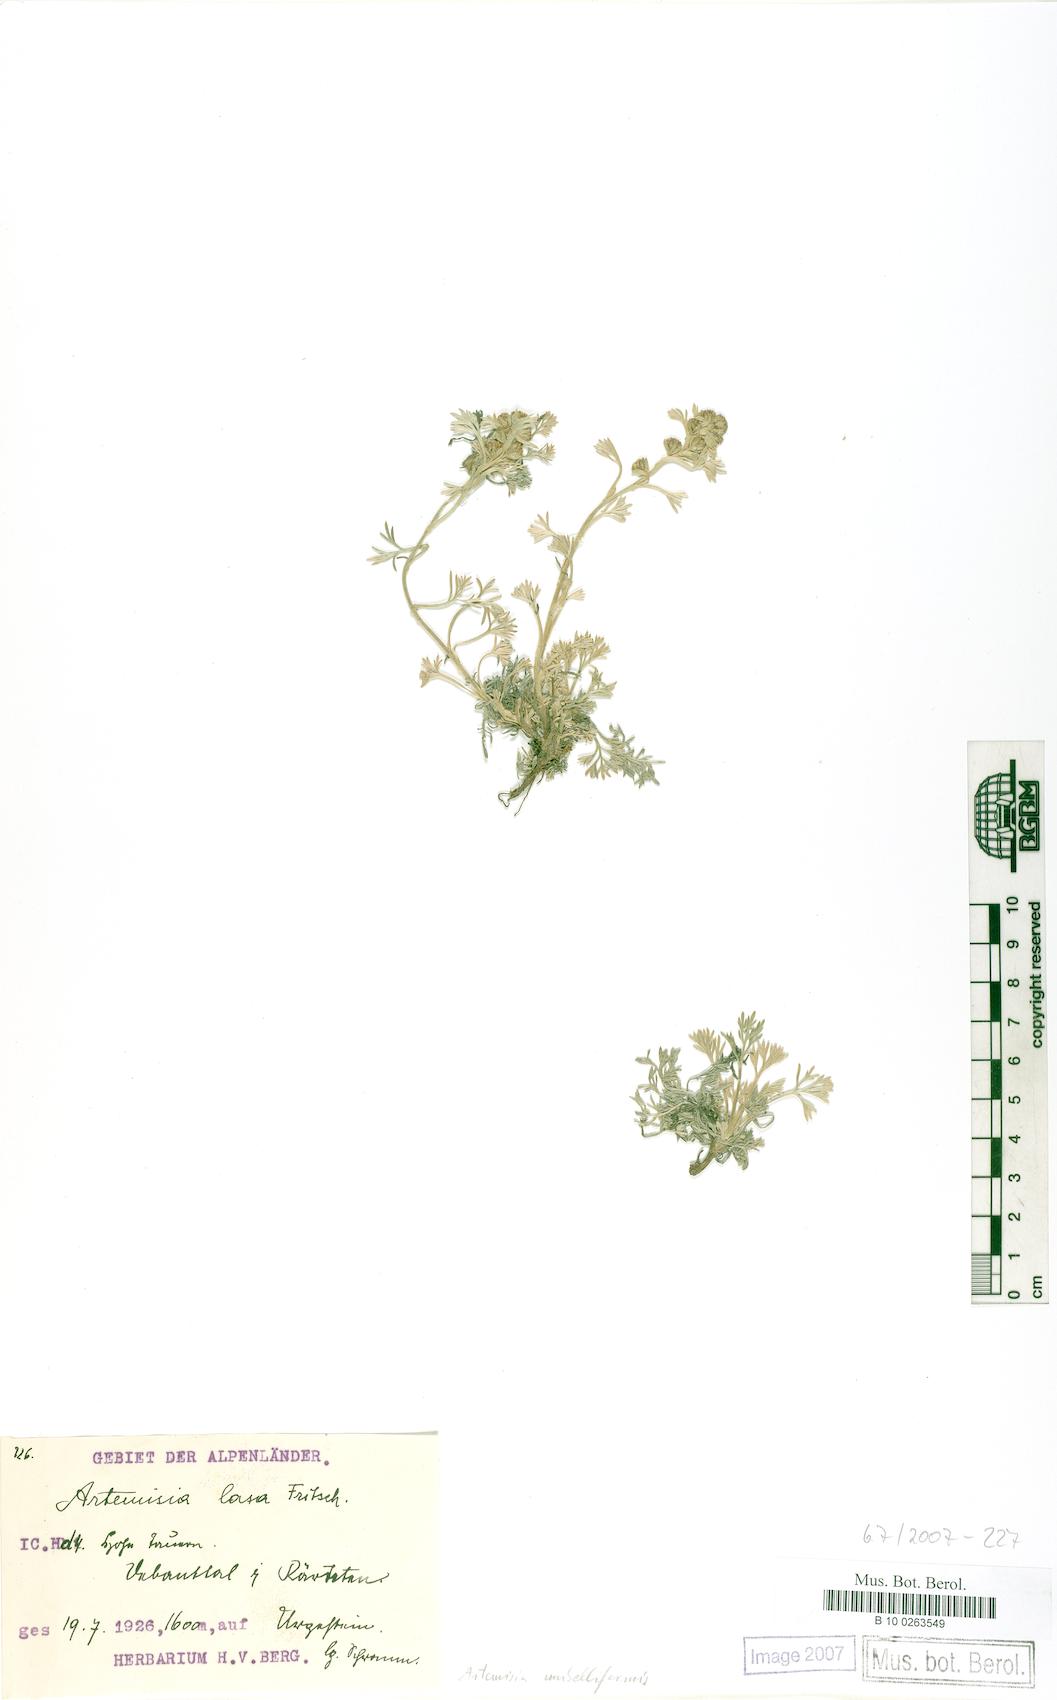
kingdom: Plantae
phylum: Tracheophyta
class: Magnoliopsida
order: Asterales
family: Asteraceae
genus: Artemisia
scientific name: Artemisia umbelliformis
